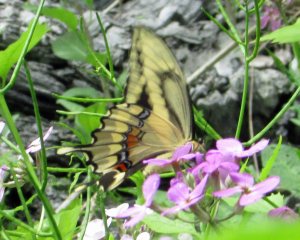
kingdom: Animalia
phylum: Arthropoda
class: Insecta
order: Lepidoptera
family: Papilionidae
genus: Papilio
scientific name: Papilio cresphontes
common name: Eastern Giant Swallowtail
